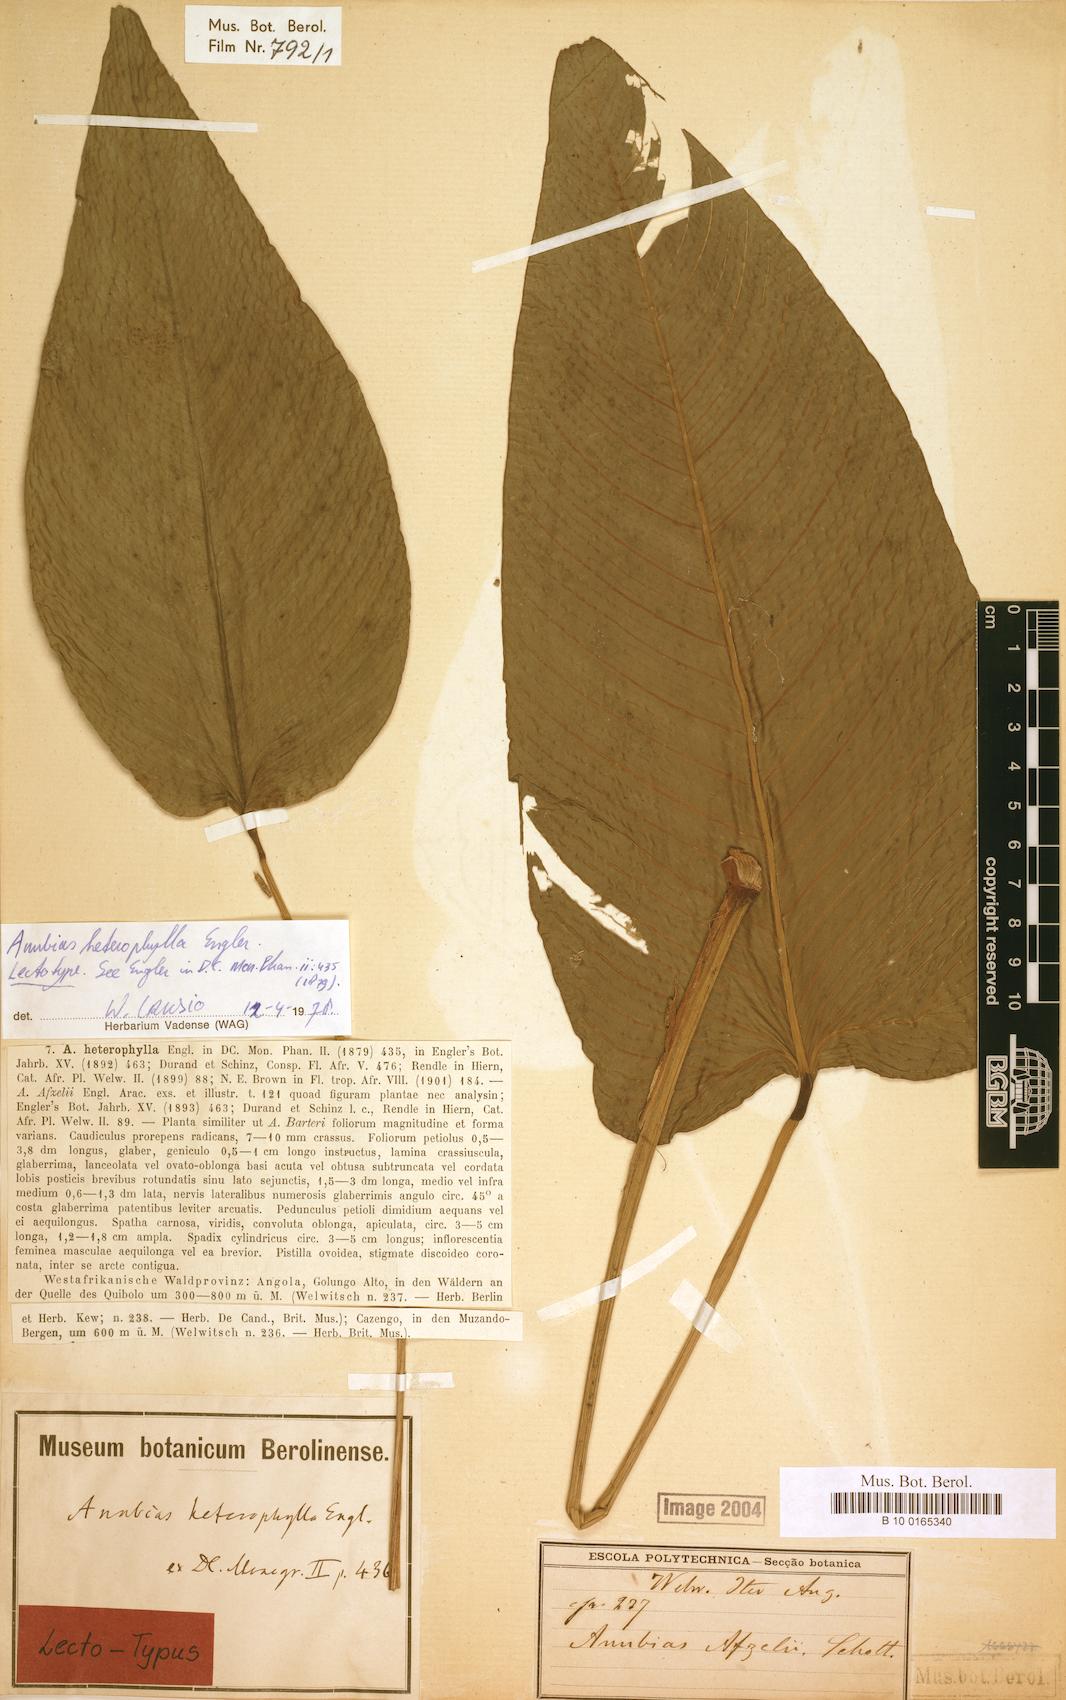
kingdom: Plantae
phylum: Tracheophyta
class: Liliopsida
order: Alismatales
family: Araceae
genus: Anubias
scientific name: Anubias heterophylla
